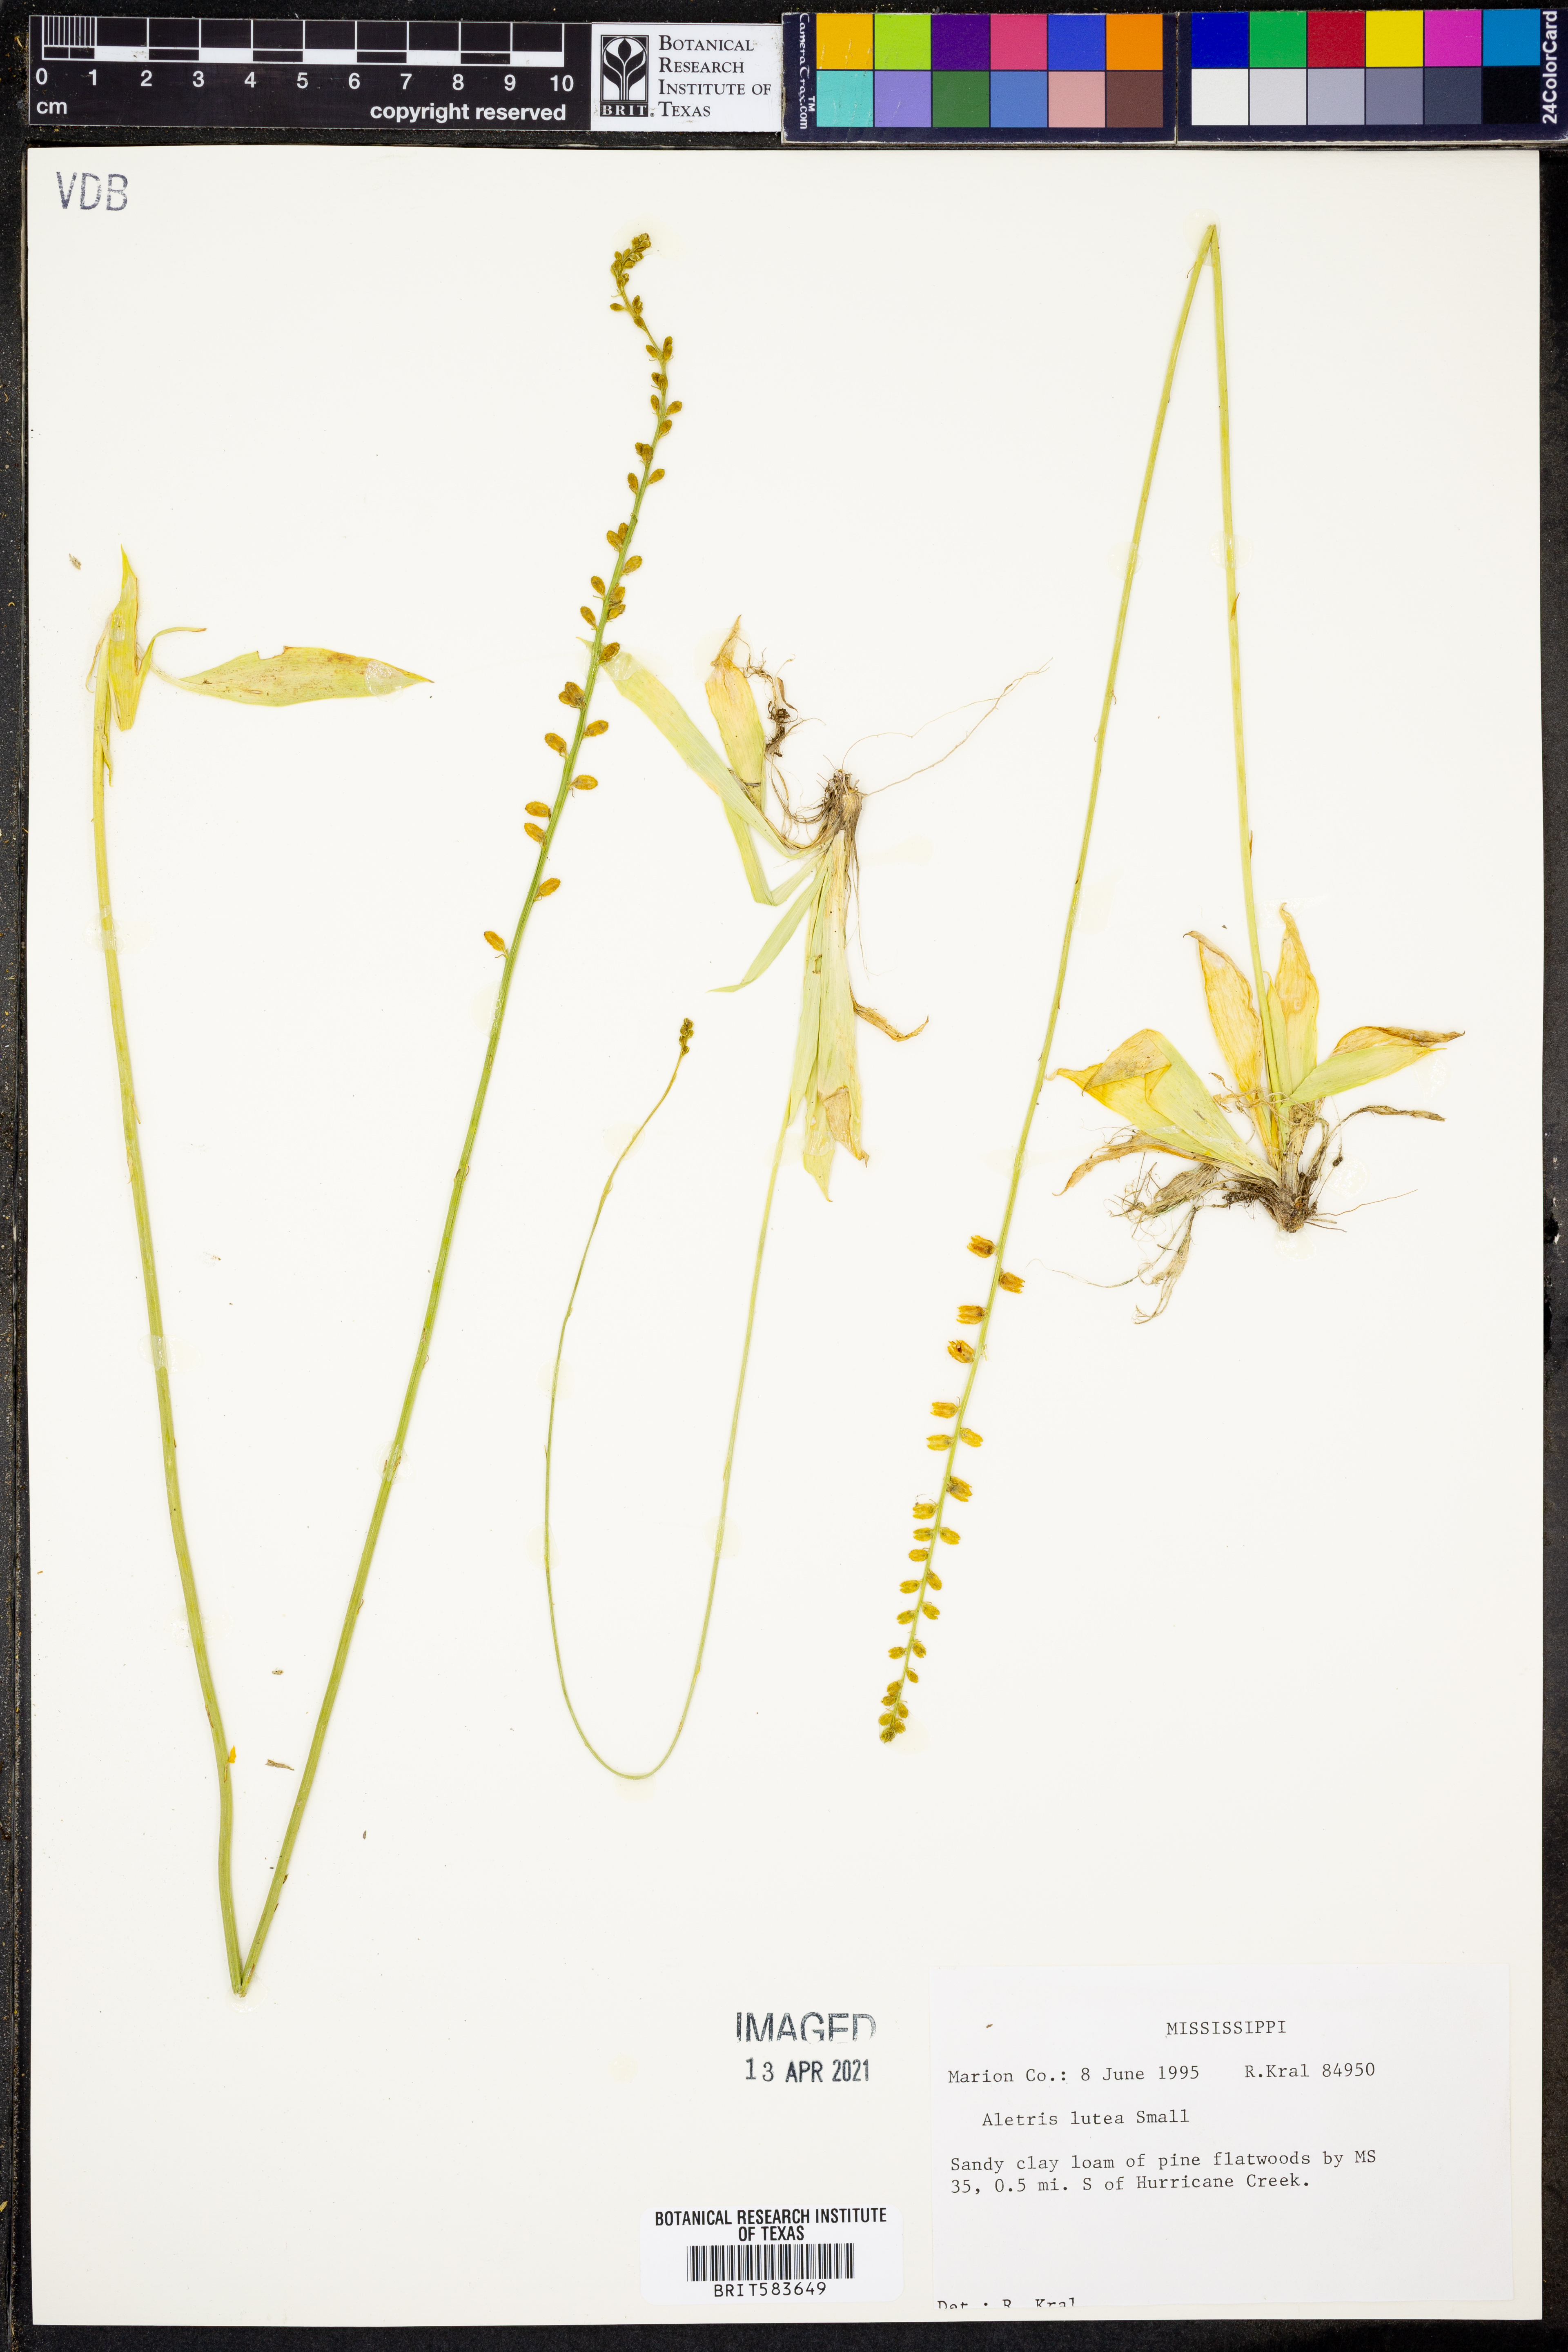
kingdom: Plantae
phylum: Tracheophyta
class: Liliopsida
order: Dioscoreales
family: Nartheciaceae
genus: Aletris
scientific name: Aletris lutea
